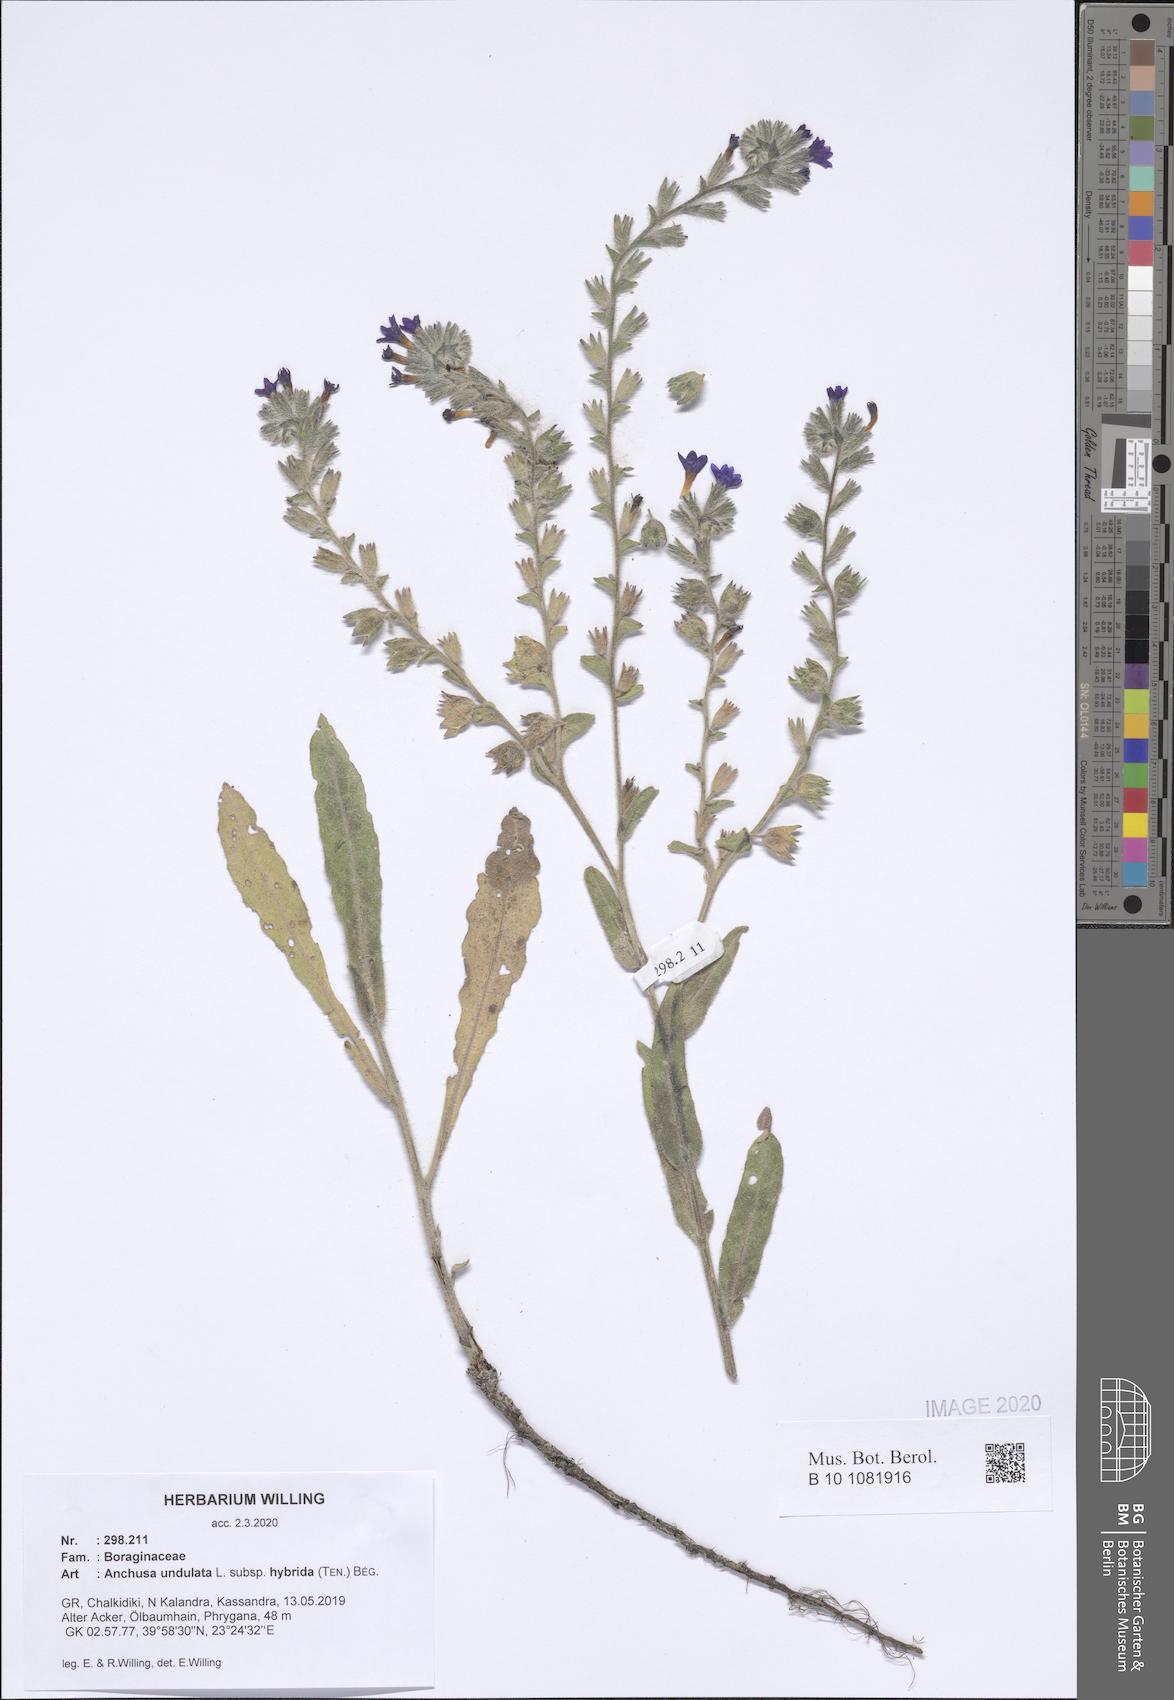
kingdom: Plantae
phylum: Tracheophyta
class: Magnoliopsida
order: Boraginales
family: Boraginaceae
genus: Anchusa
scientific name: Anchusa undulata
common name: Undulate alkanet
